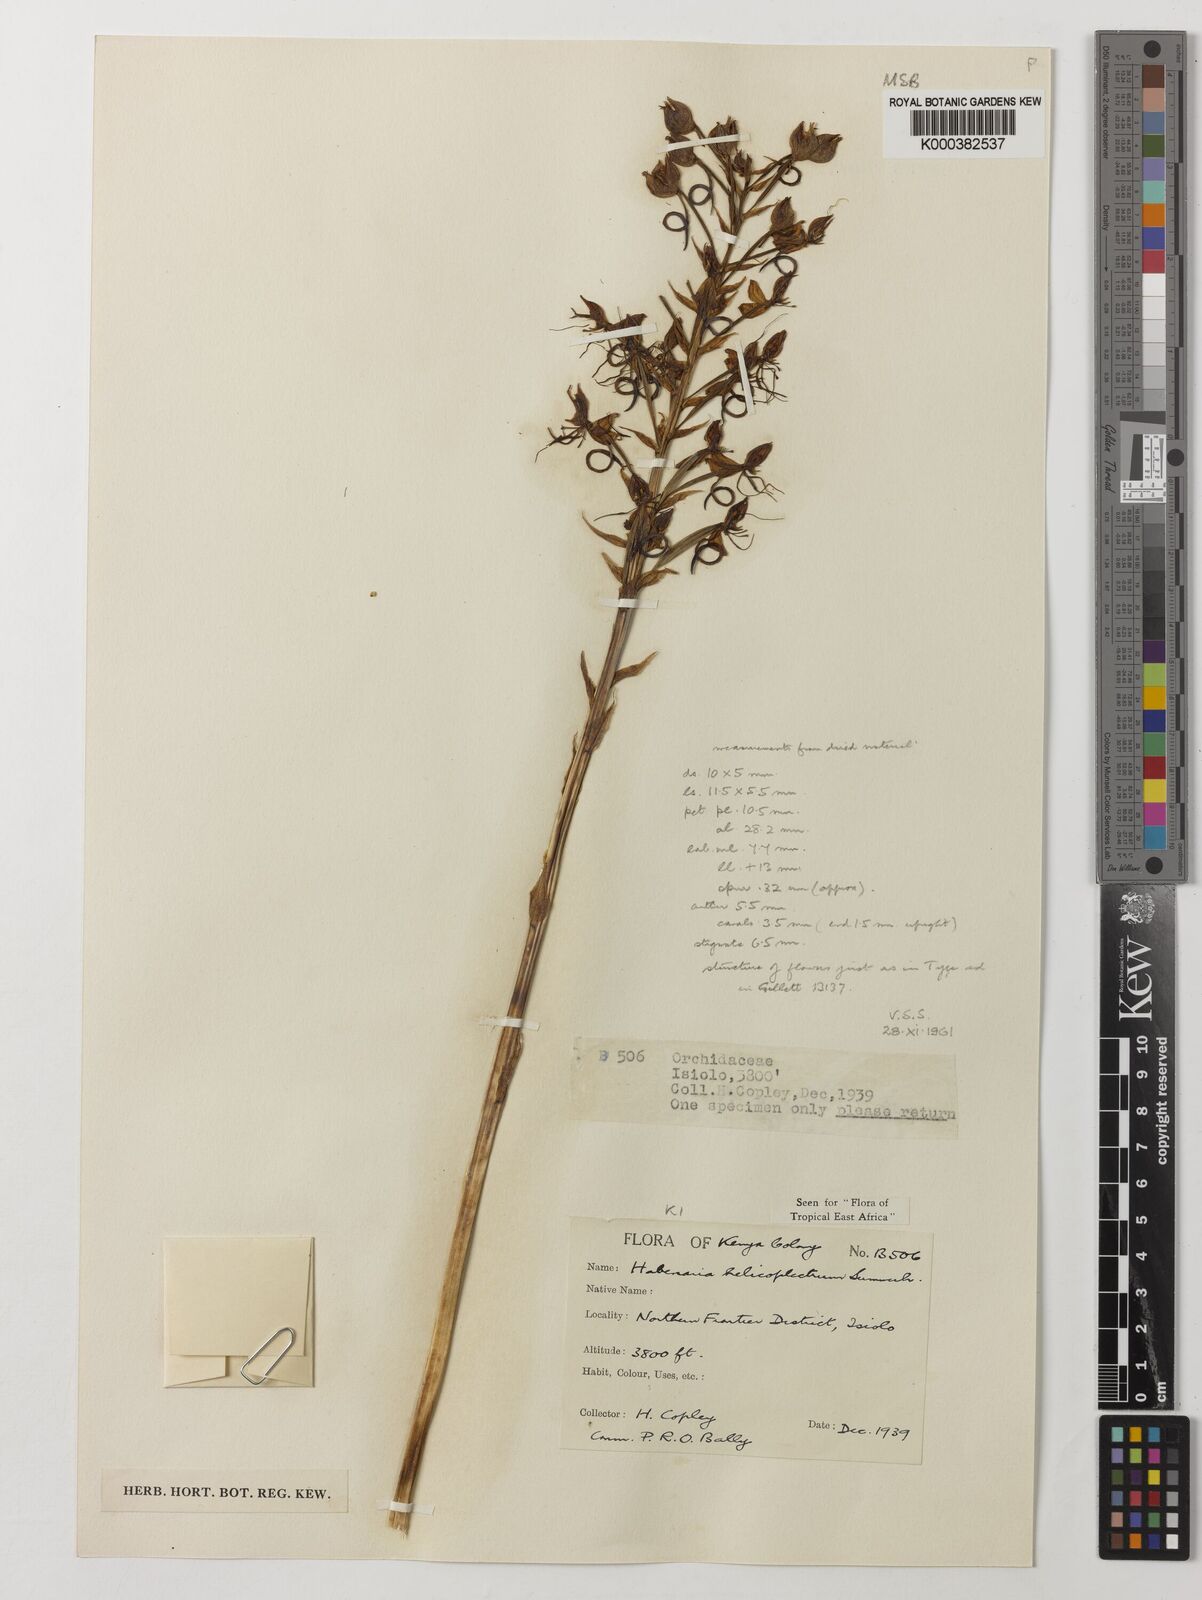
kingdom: Plantae
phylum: Tracheophyta
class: Liliopsida
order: Asparagales
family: Orchidaceae
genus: Habenaria
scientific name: Habenaria helicoplectrum
